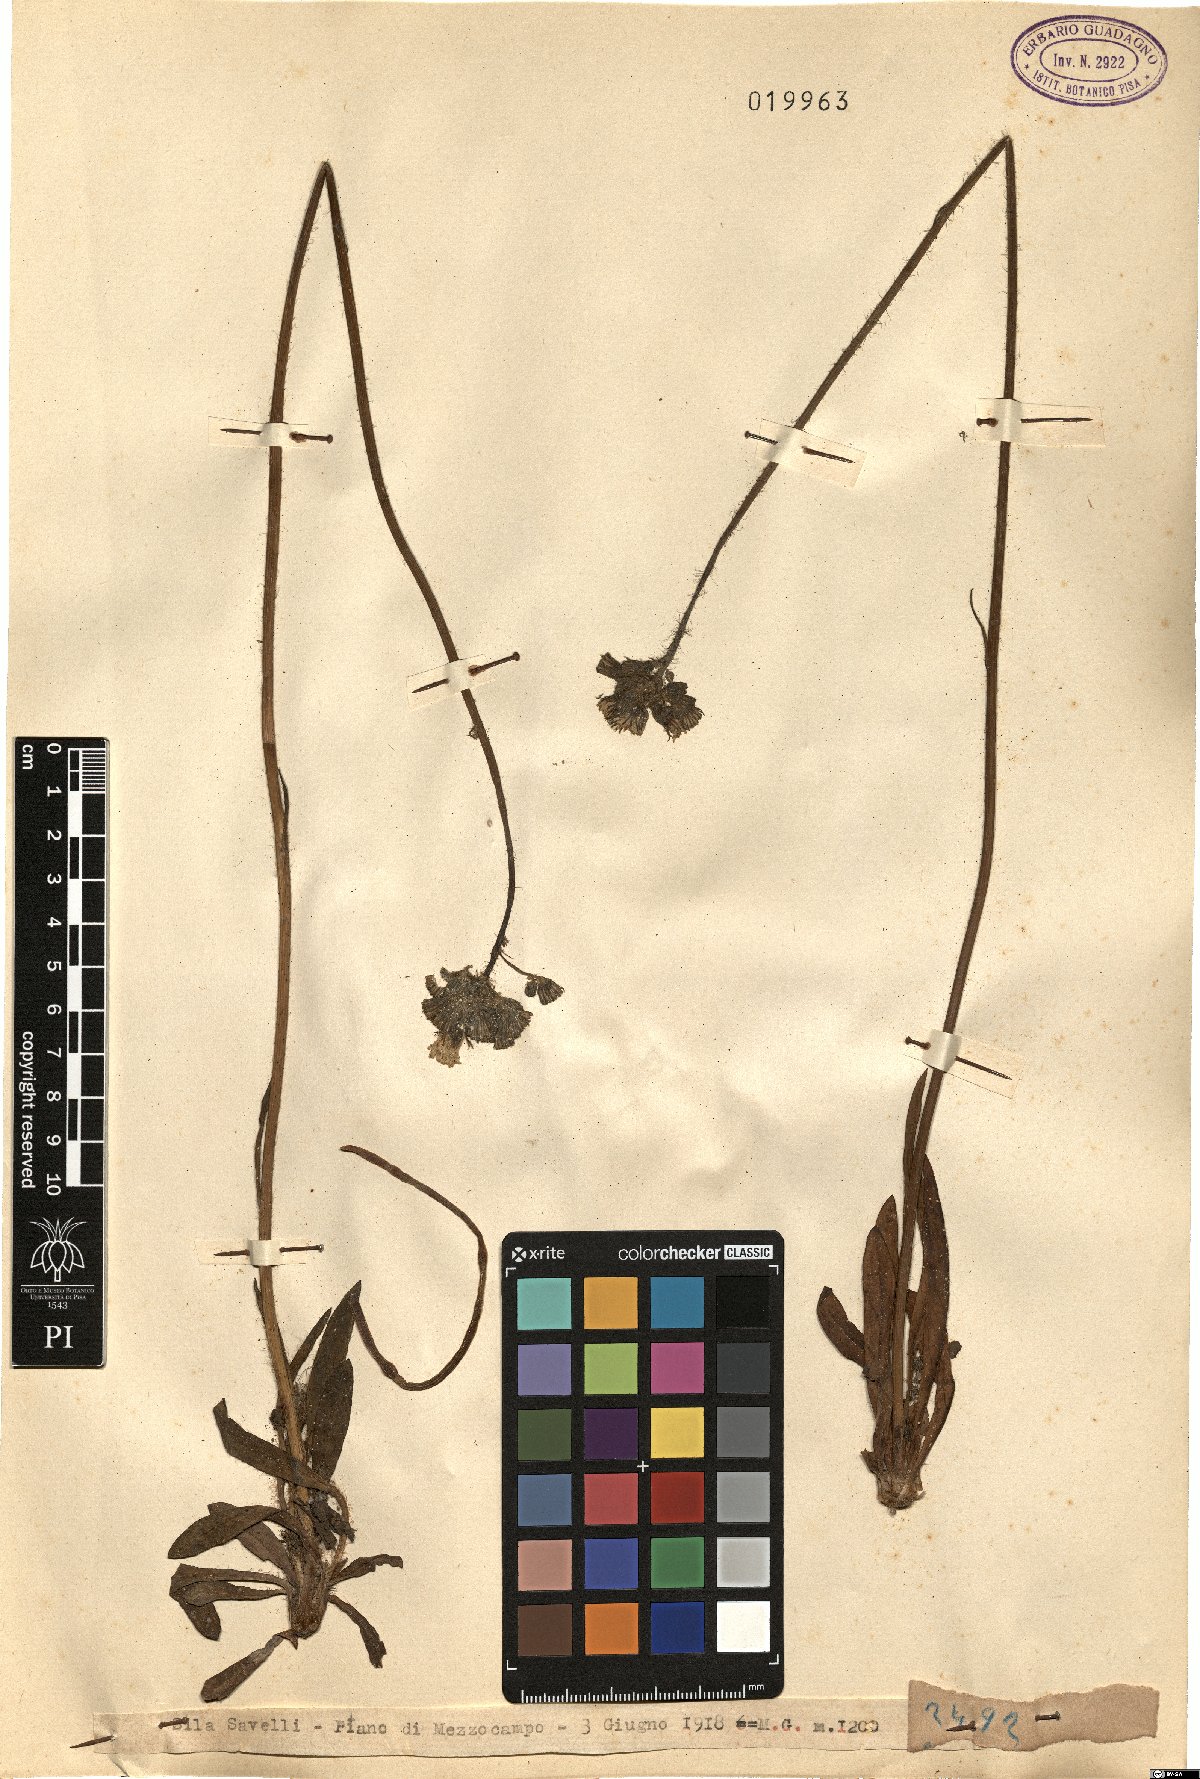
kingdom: Plantae
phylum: Tracheophyta
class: Magnoliopsida
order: Asterales
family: Asteraceae
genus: Hieracium
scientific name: Hieracium
